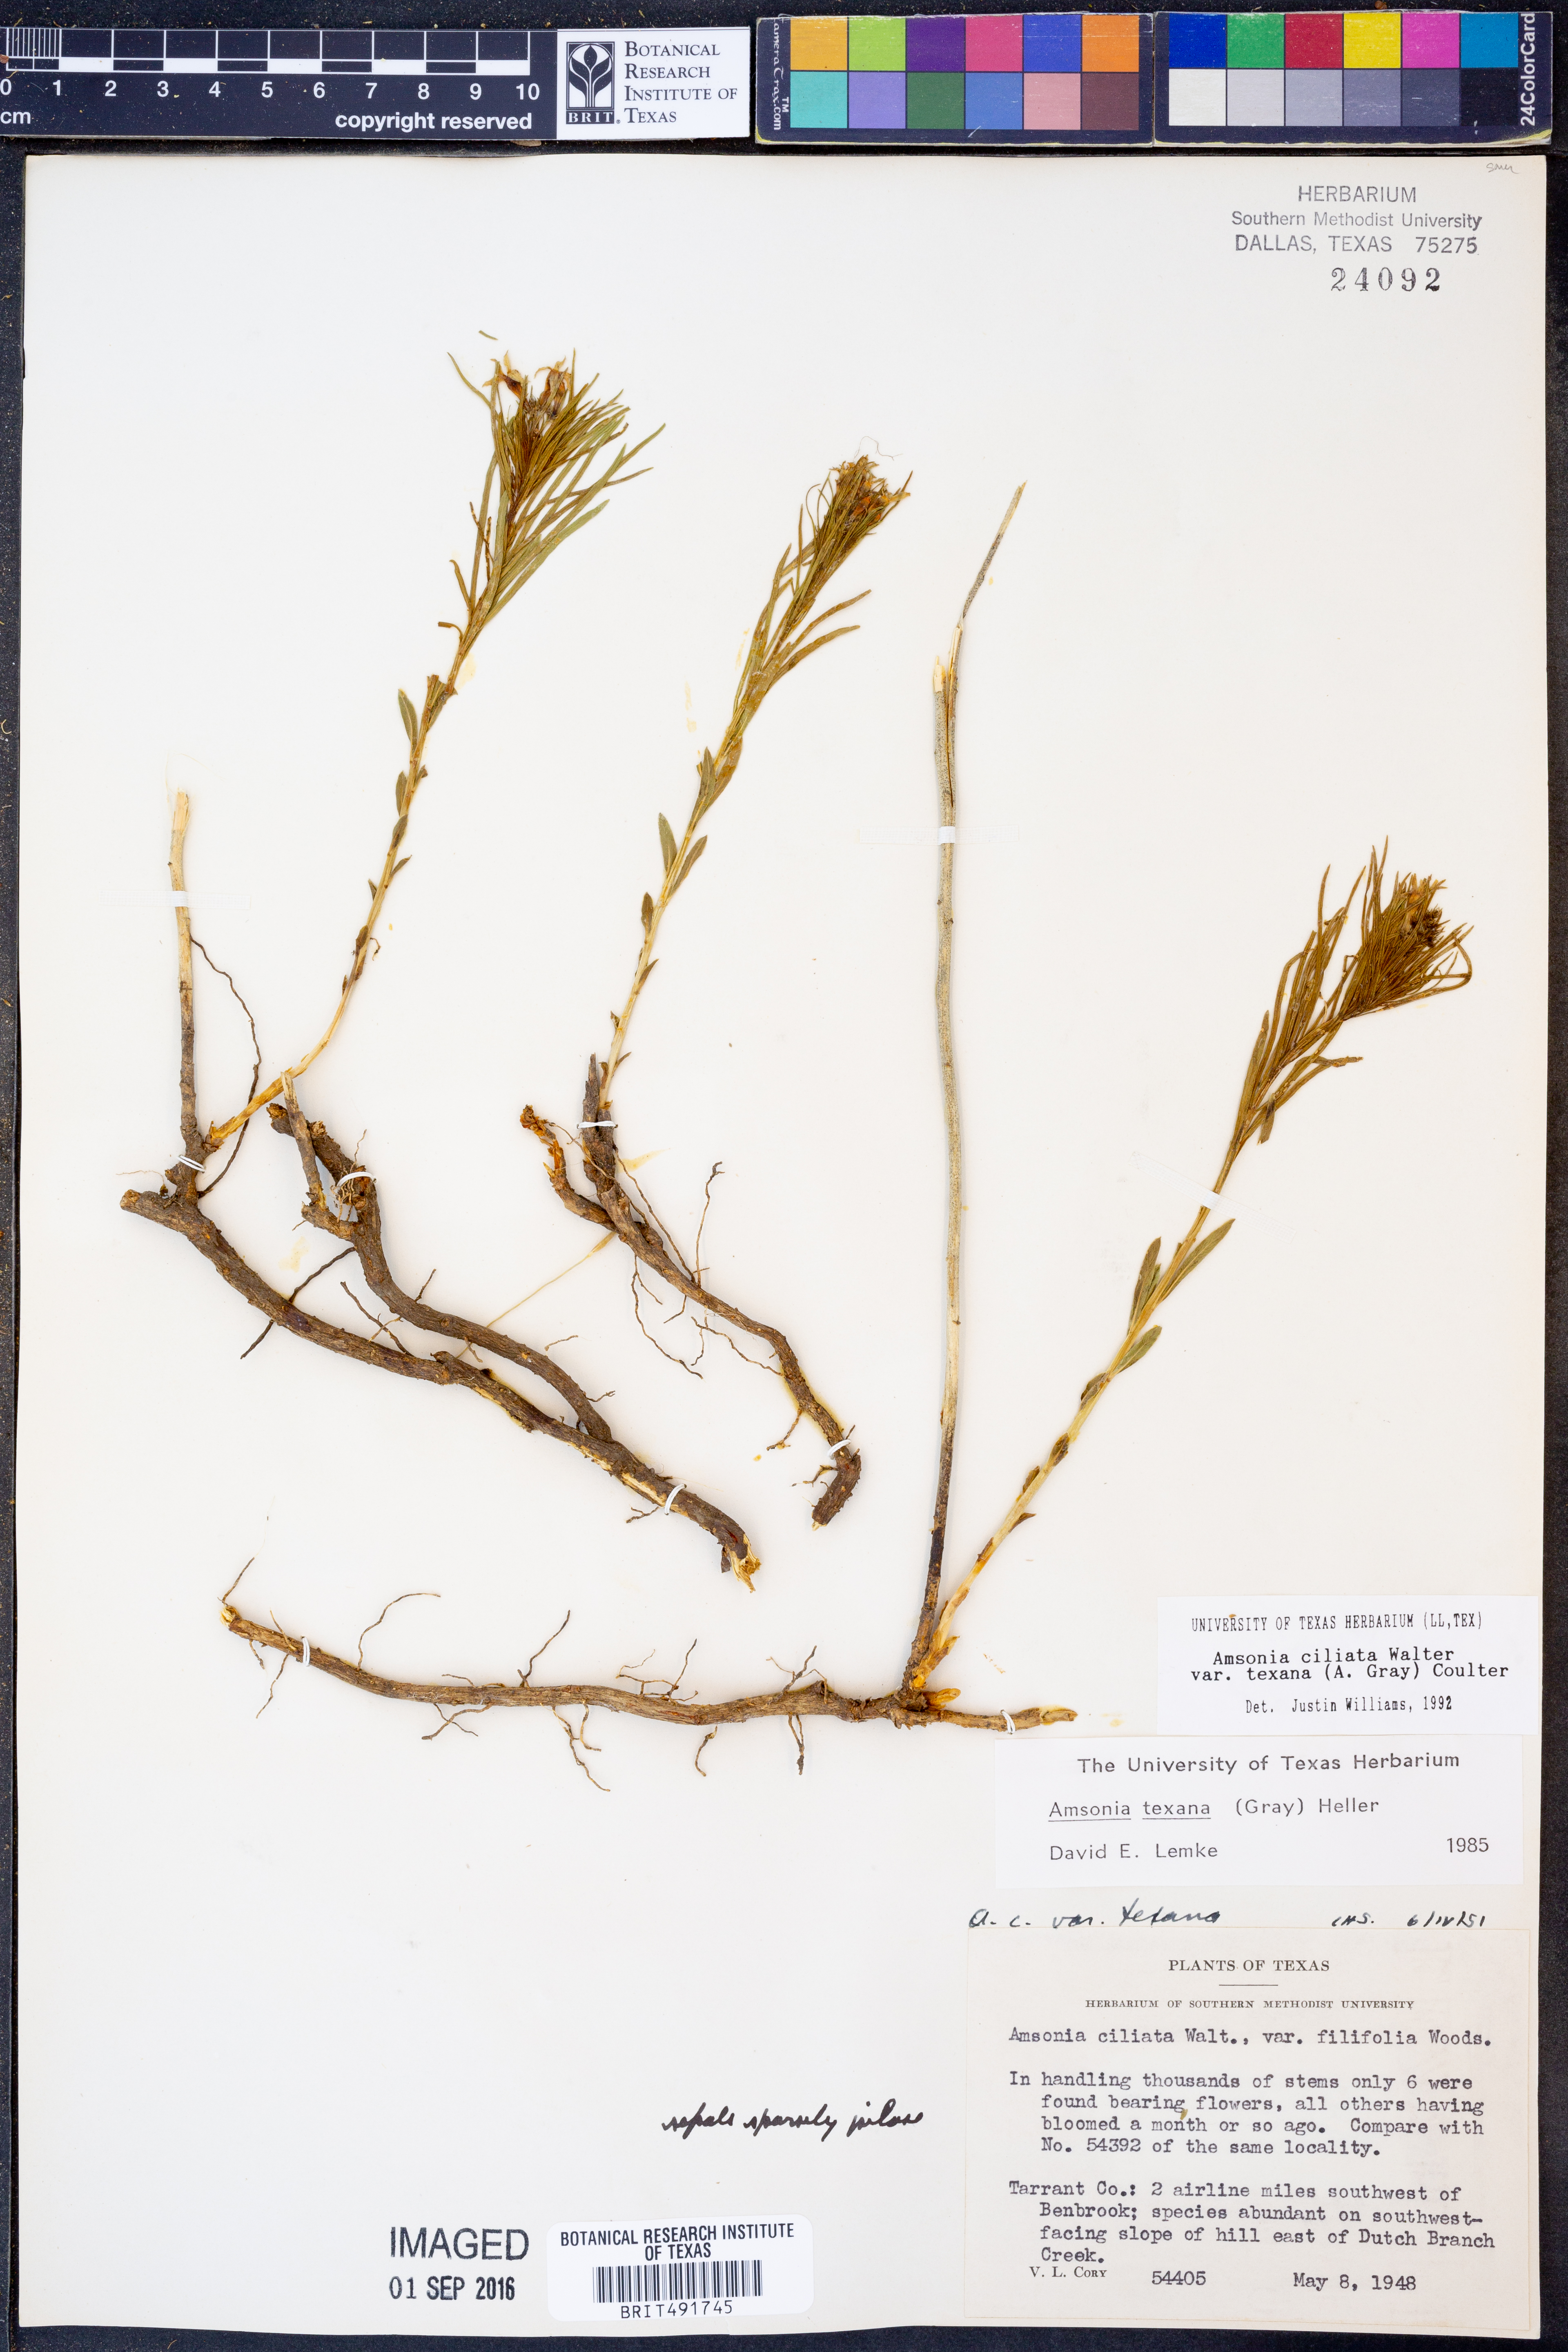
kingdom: Plantae
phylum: Tracheophyta
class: Magnoliopsida
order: Gentianales
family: Apocynaceae
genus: Amsonia
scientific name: Amsonia ciliata
